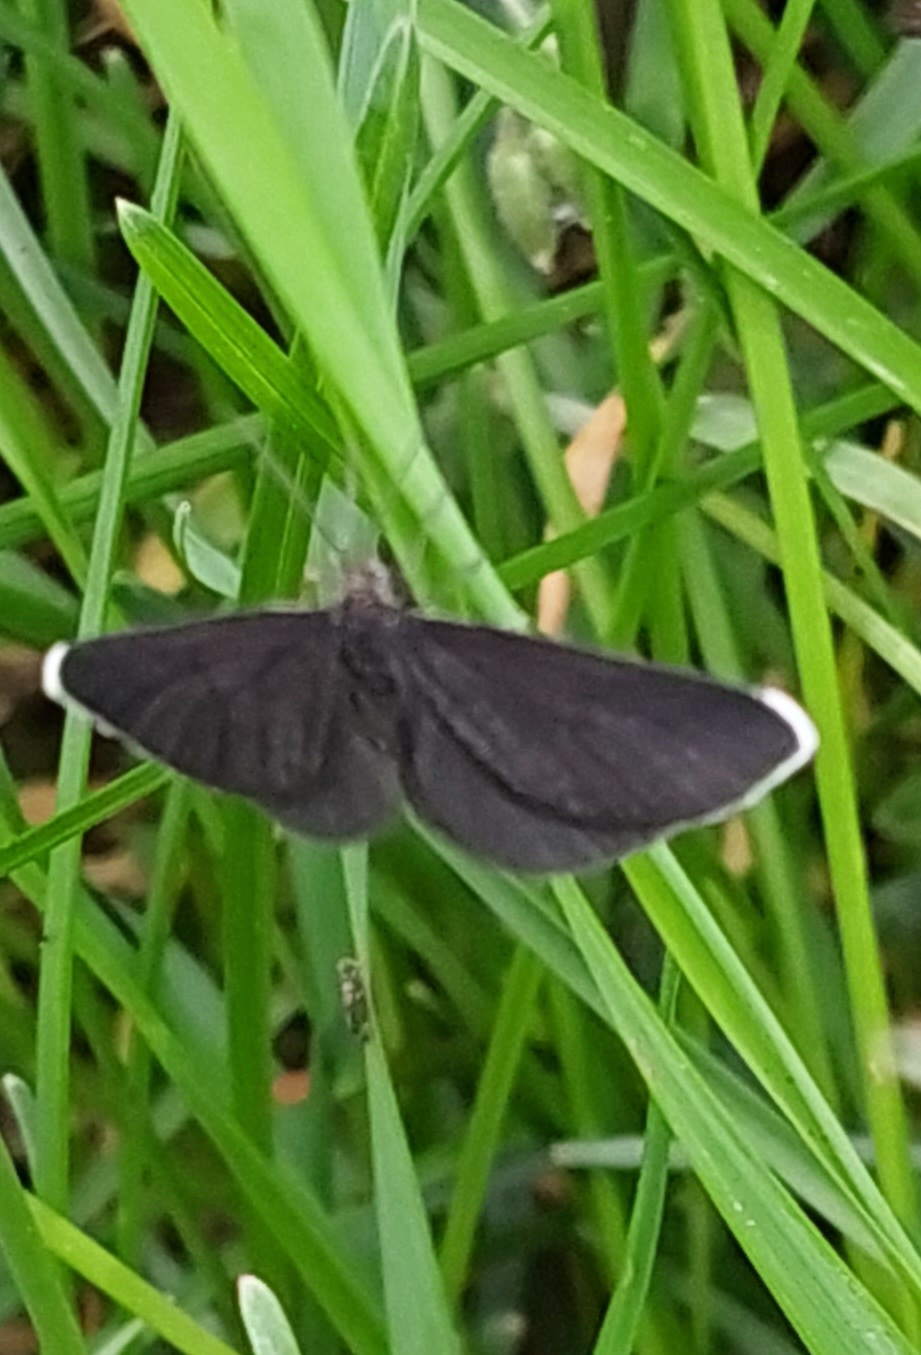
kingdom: Animalia
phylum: Arthropoda
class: Insecta
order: Lepidoptera
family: Geometridae
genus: Odezia
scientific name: Odezia atrata
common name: Sort måler
